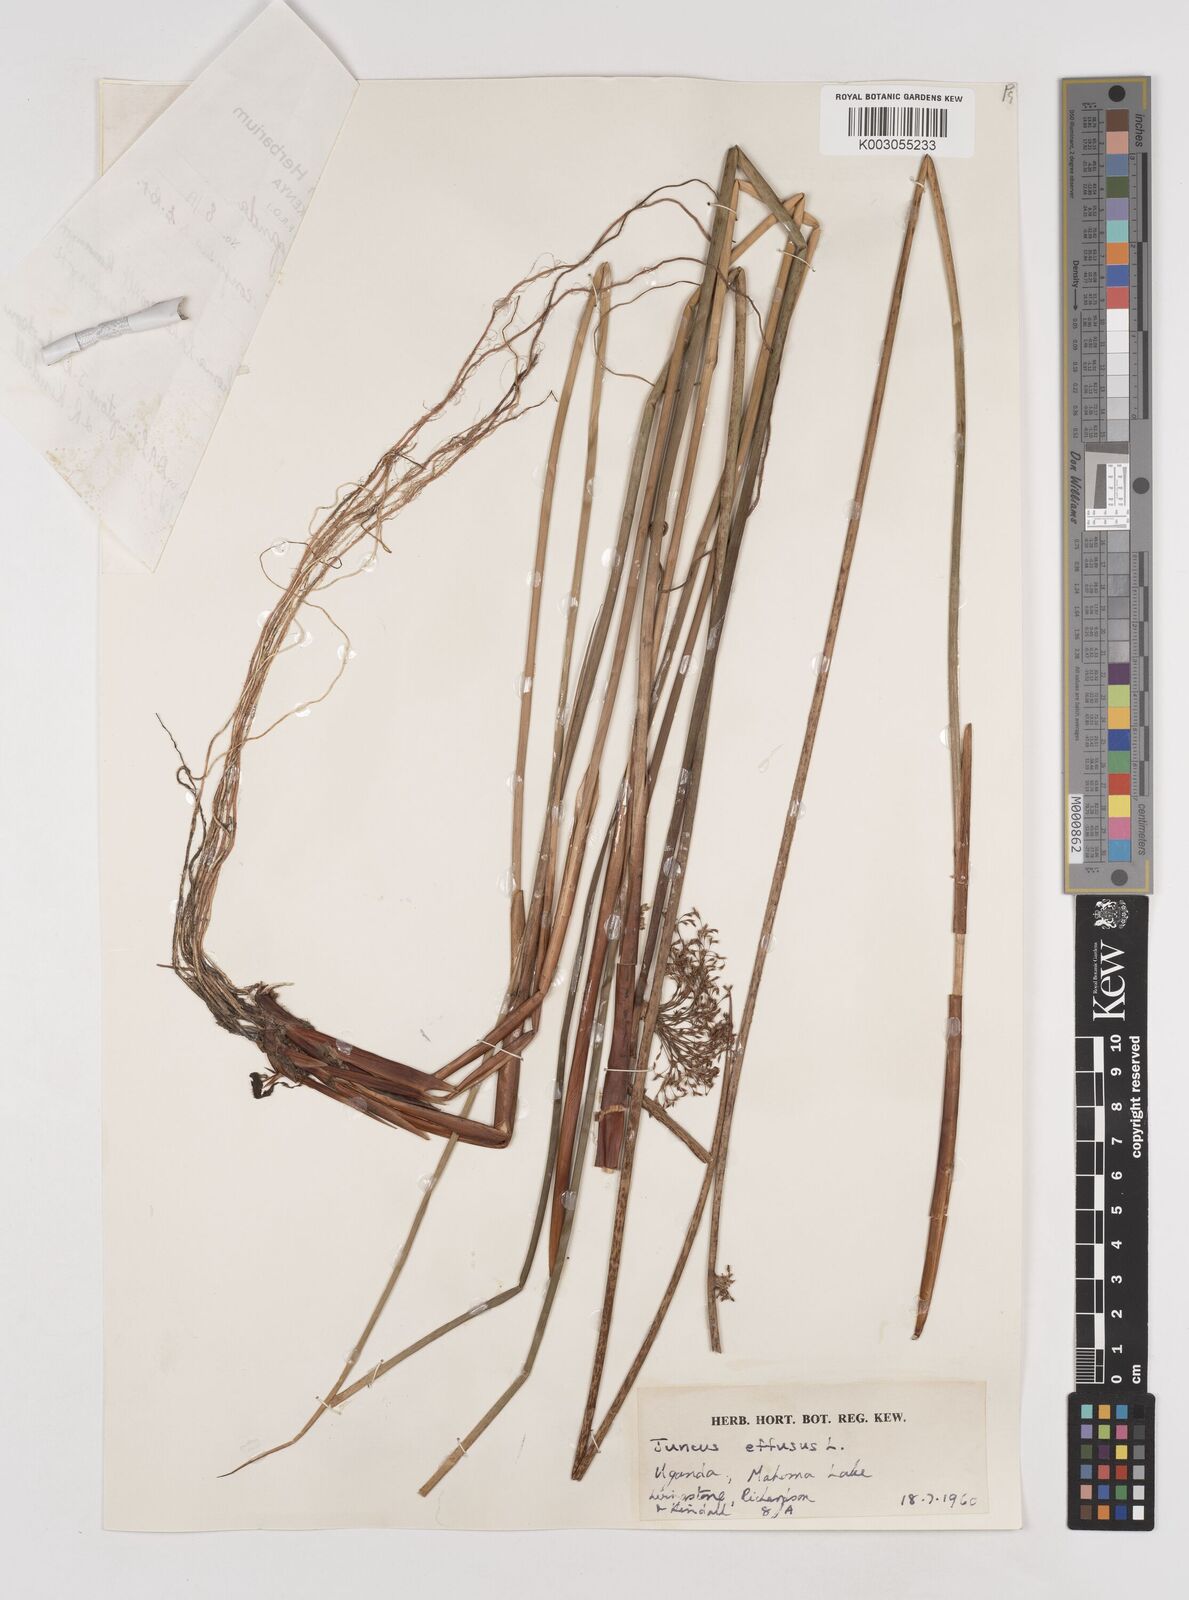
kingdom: Plantae
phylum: Tracheophyta
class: Liliopsida
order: Poales
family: Juncaceae
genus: Juncus
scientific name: Juncus effusus
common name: Soft rush
